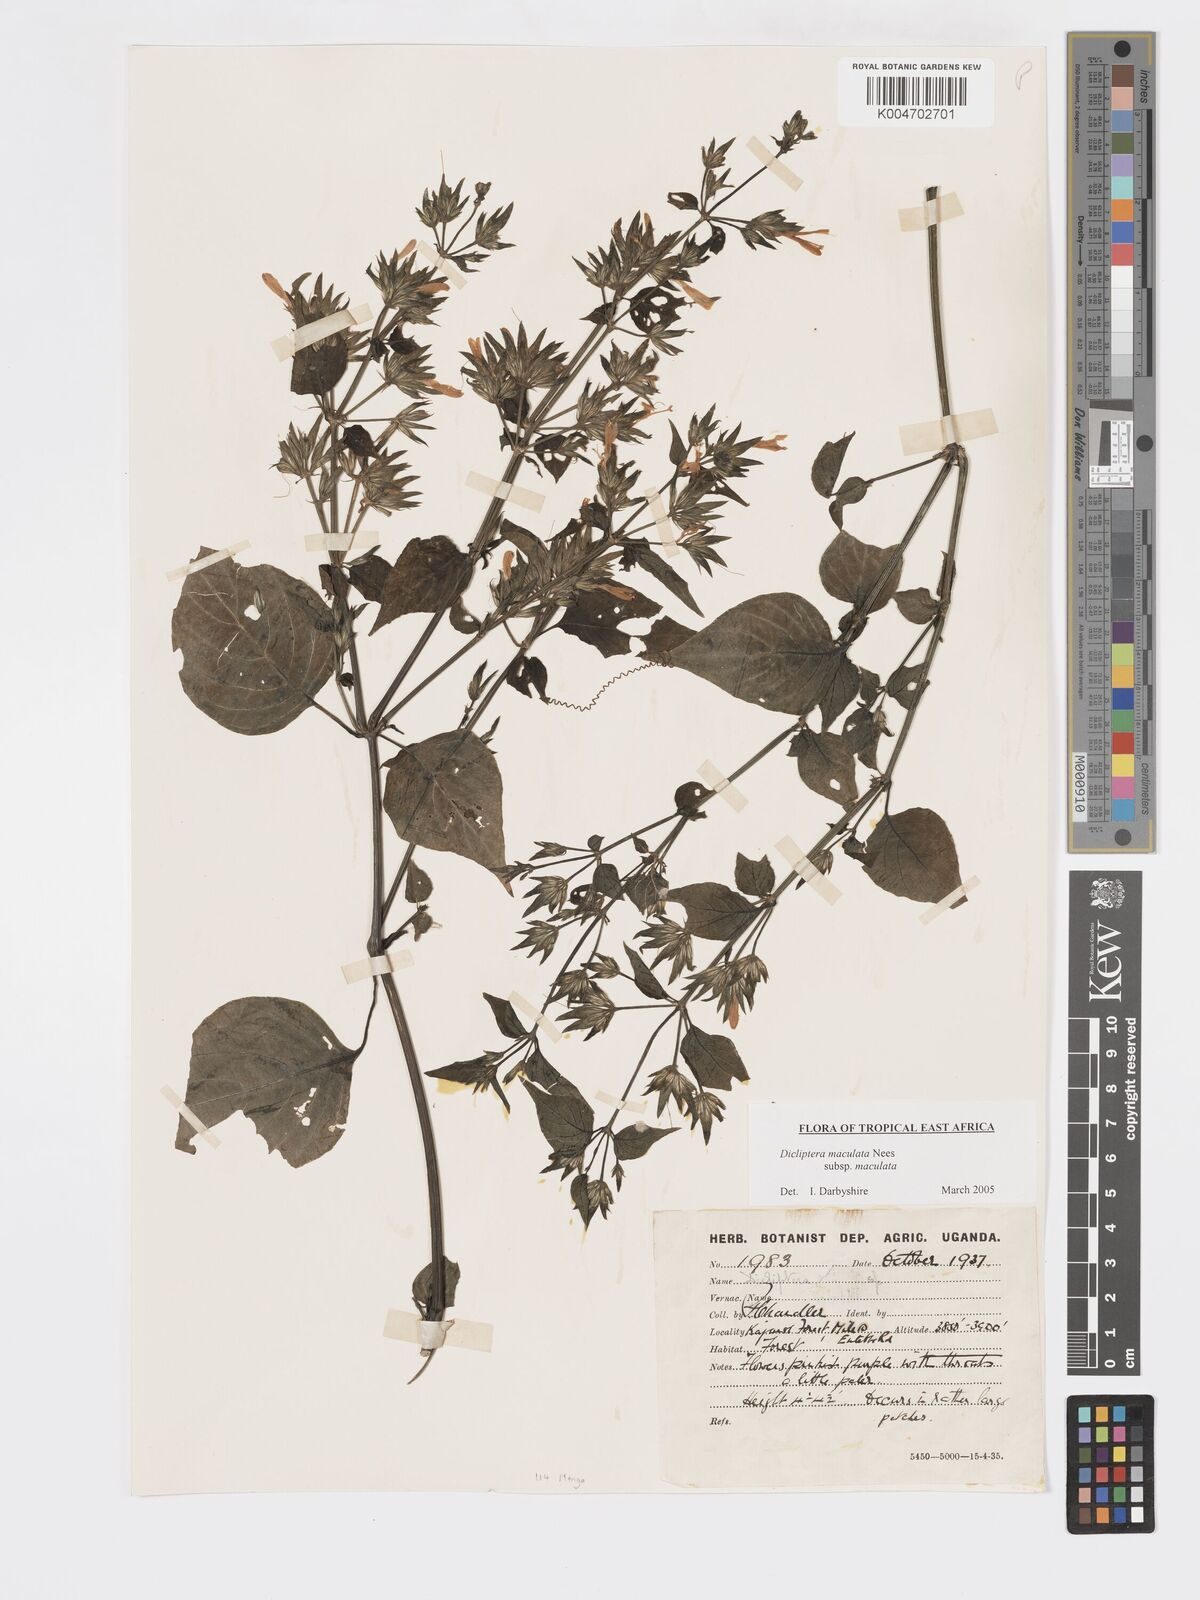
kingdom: Plantae
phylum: Tracheophyta
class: Magnoliopsida
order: Lamiales
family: Acanthaceae
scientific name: Acanthaceae
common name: Acanthaceae
